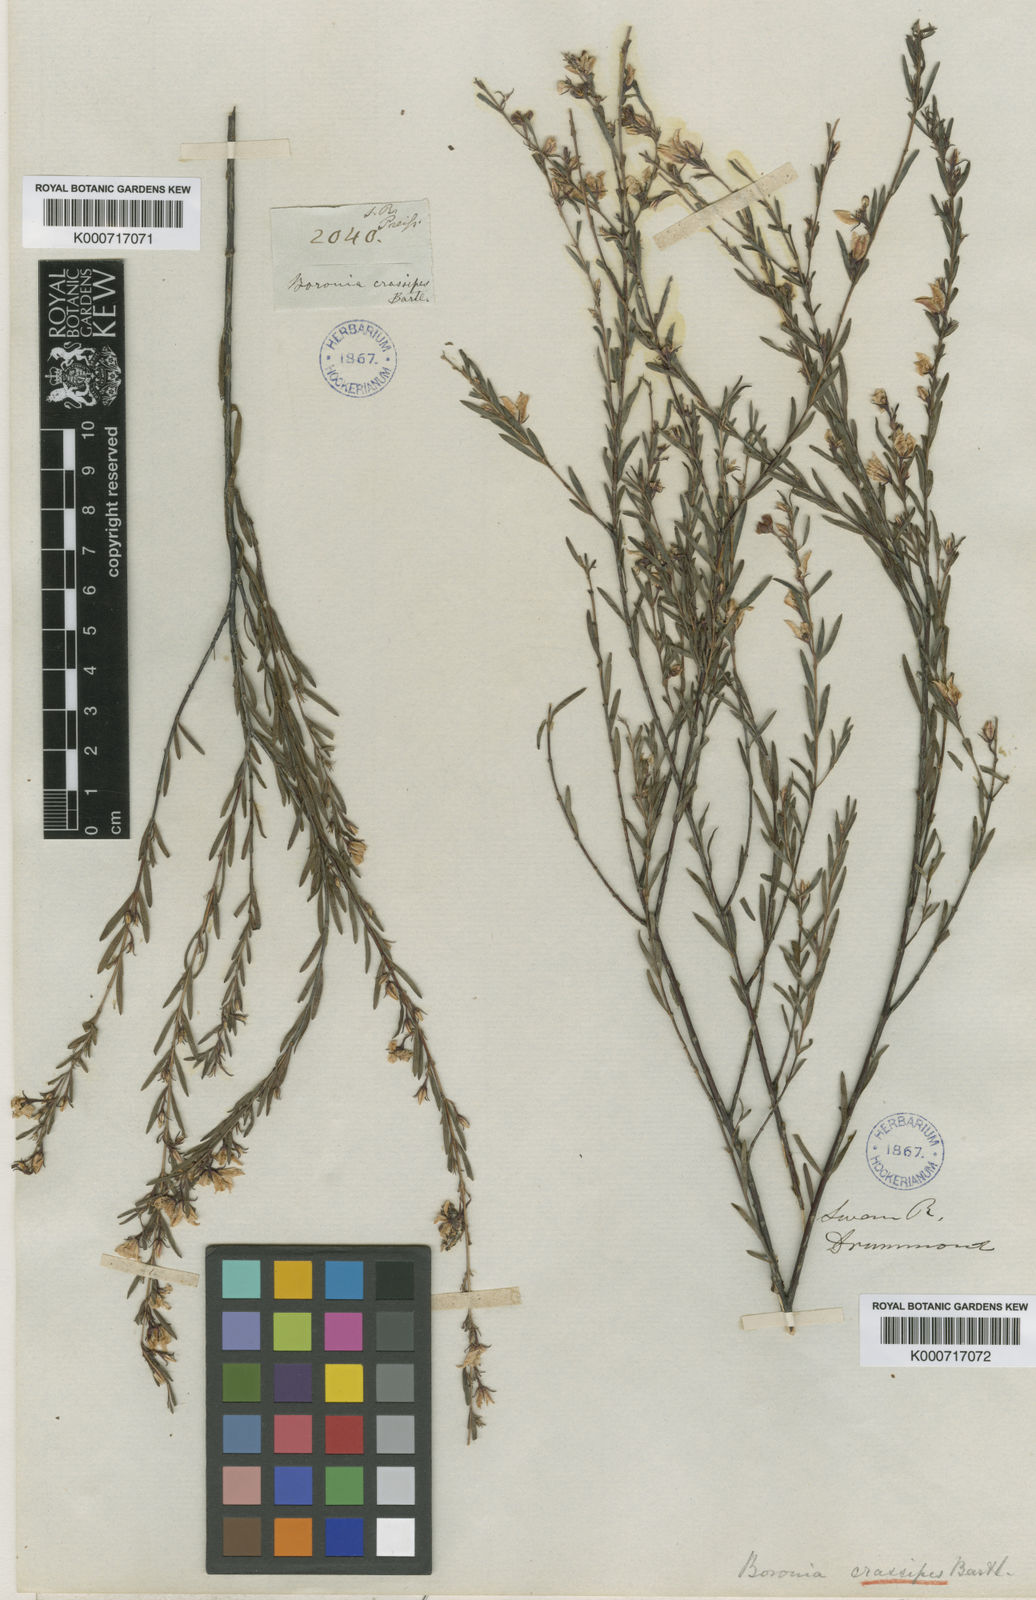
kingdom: Plantae
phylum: Tracheophyta
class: Magnoliopsida
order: Sapindales
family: Rutaceae
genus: Boronia
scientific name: Boronia crassipes
